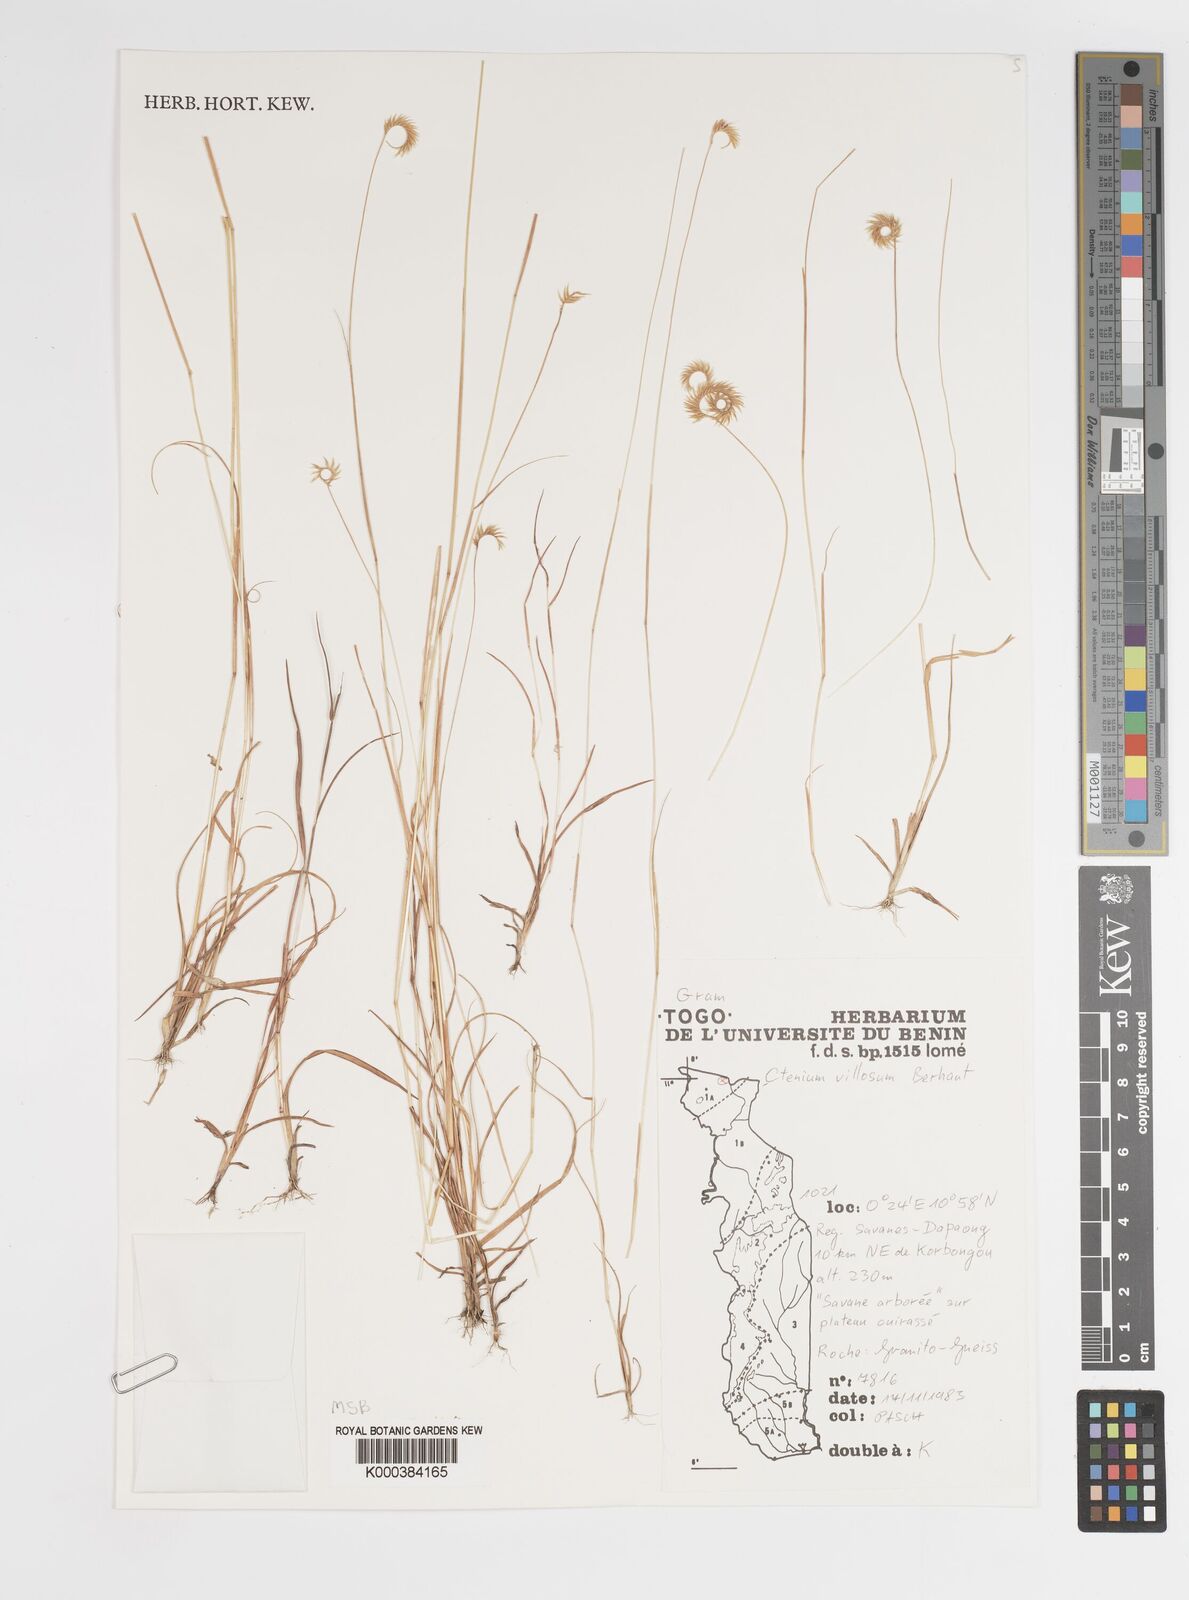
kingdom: Plantae
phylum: Tracheophyta
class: Liliopsida
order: Poales
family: Poaceae
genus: Ctenium
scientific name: Ctenium villosum
